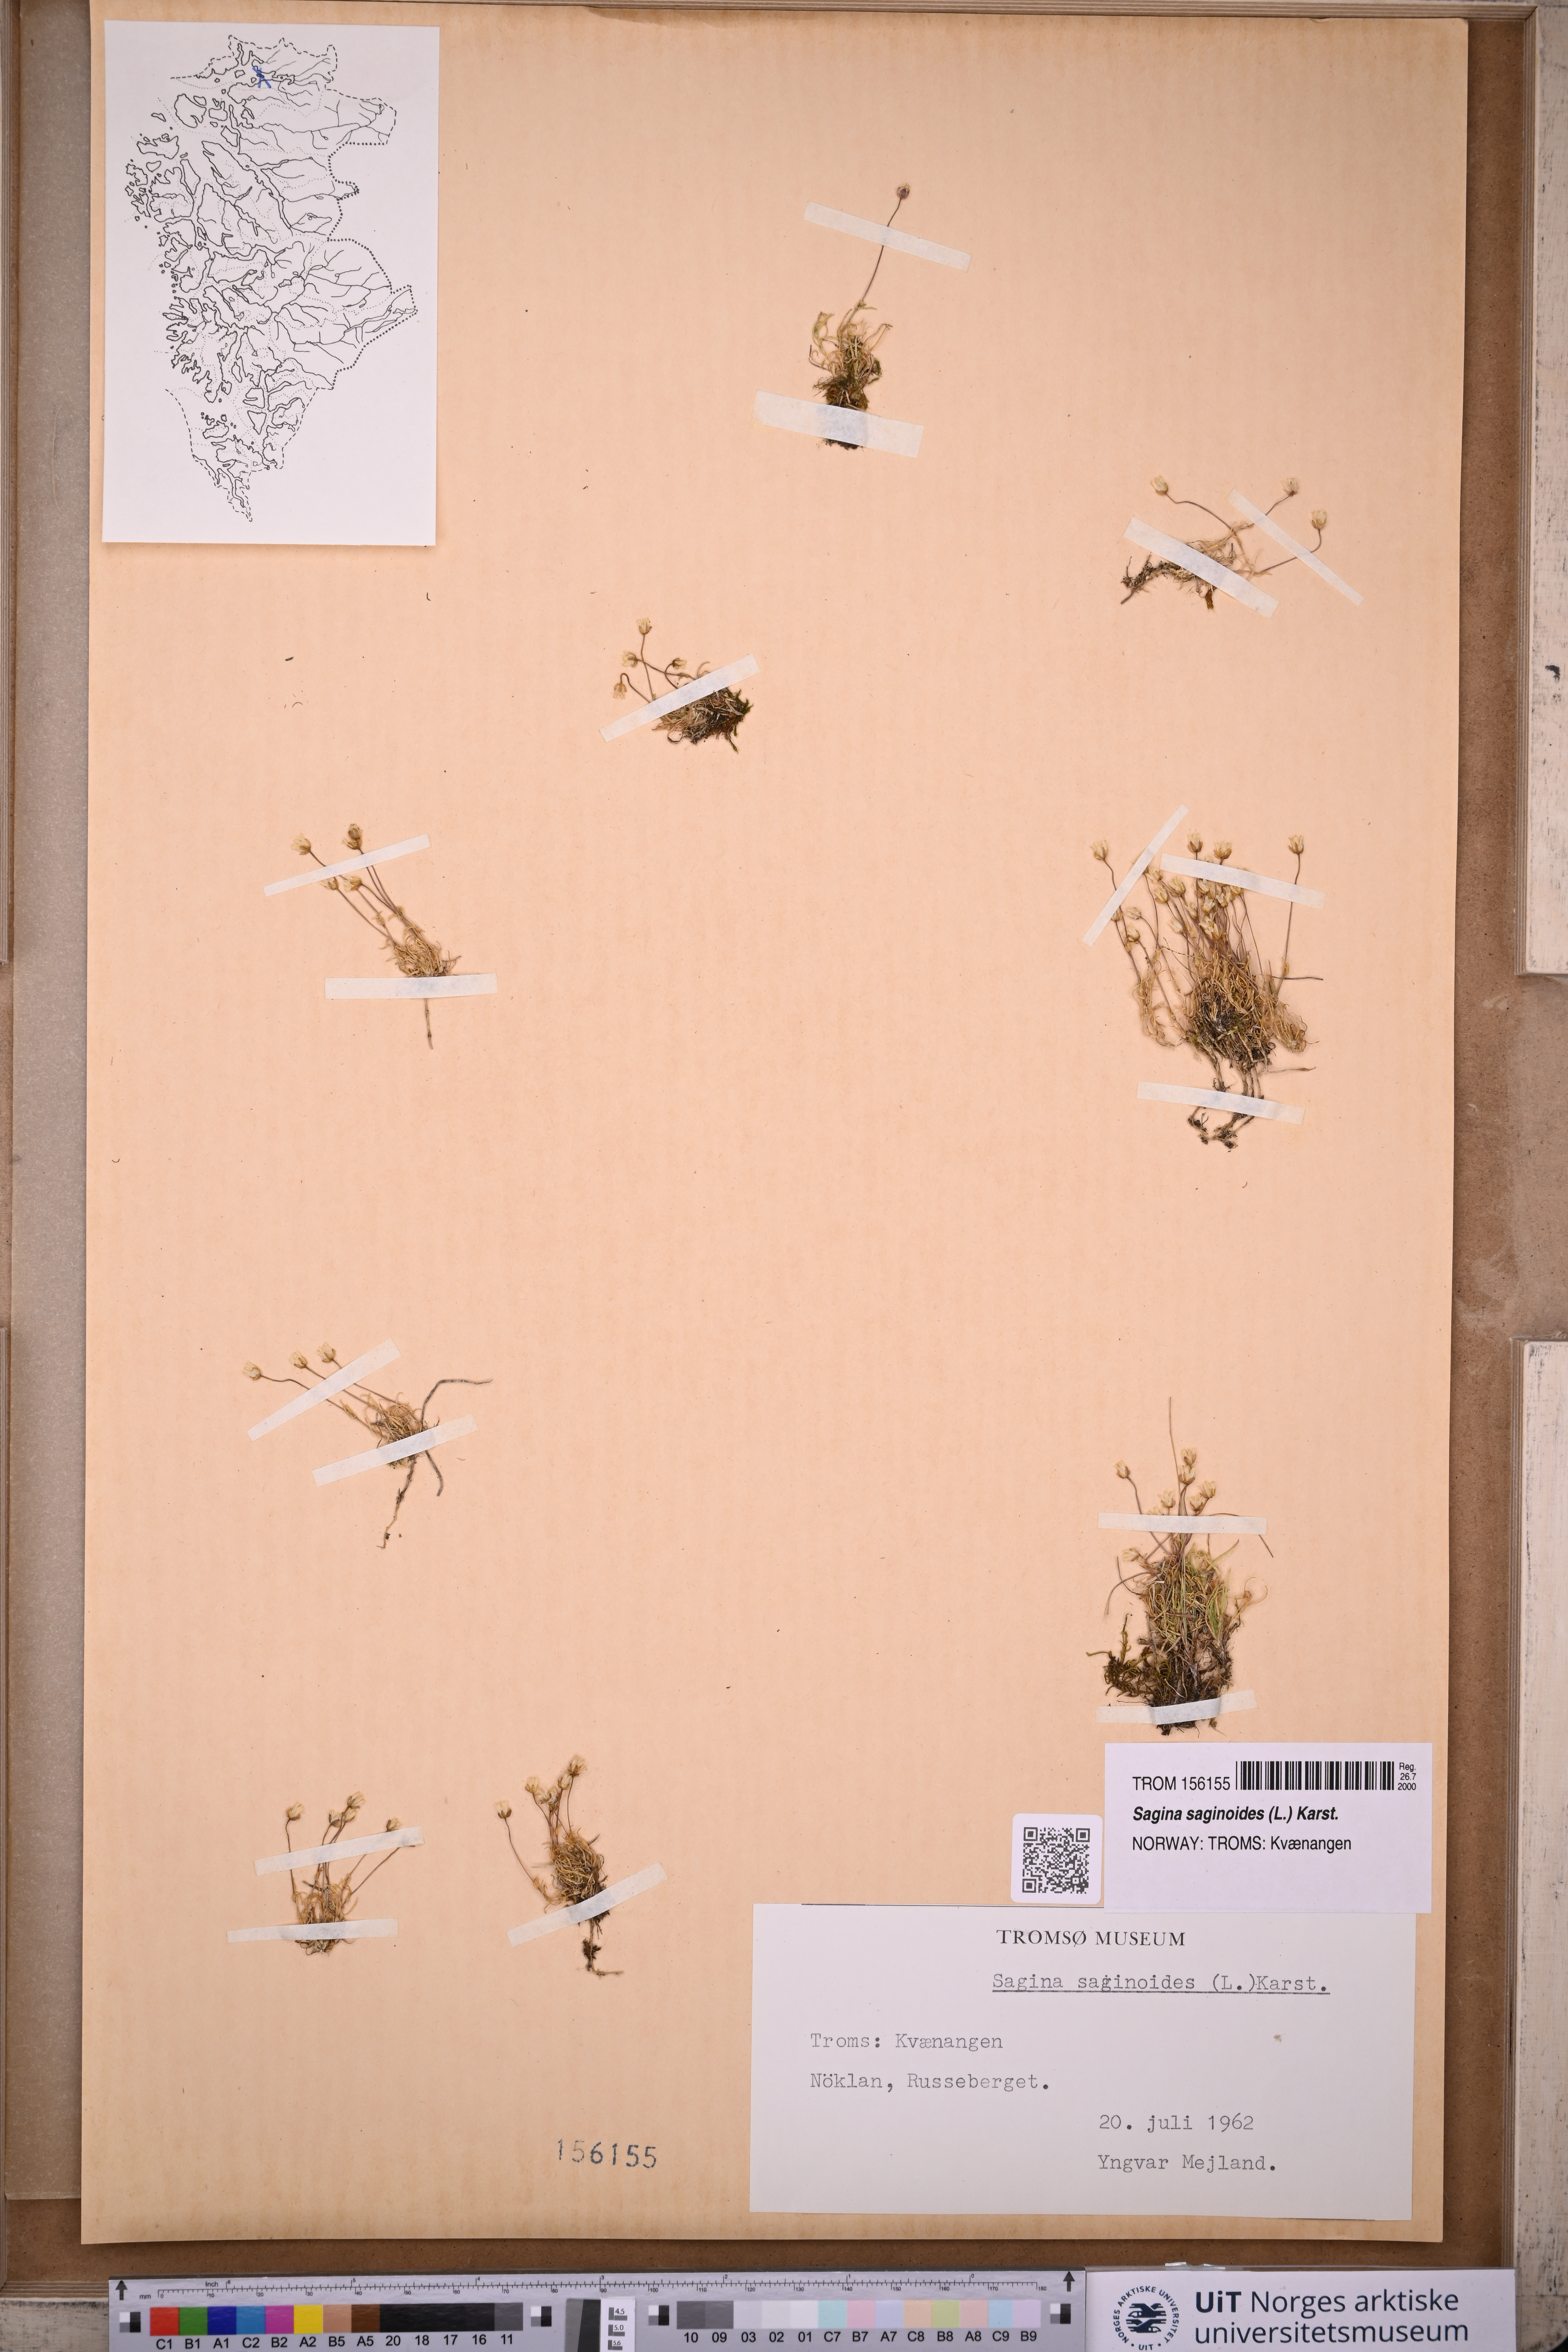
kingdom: Plantae
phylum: Tracheophyta
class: Magnoliopsida
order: Caryophyllales
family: Caryophyllaceae
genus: Sagina
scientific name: Sagina saginoides
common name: Alpine pearlwort
